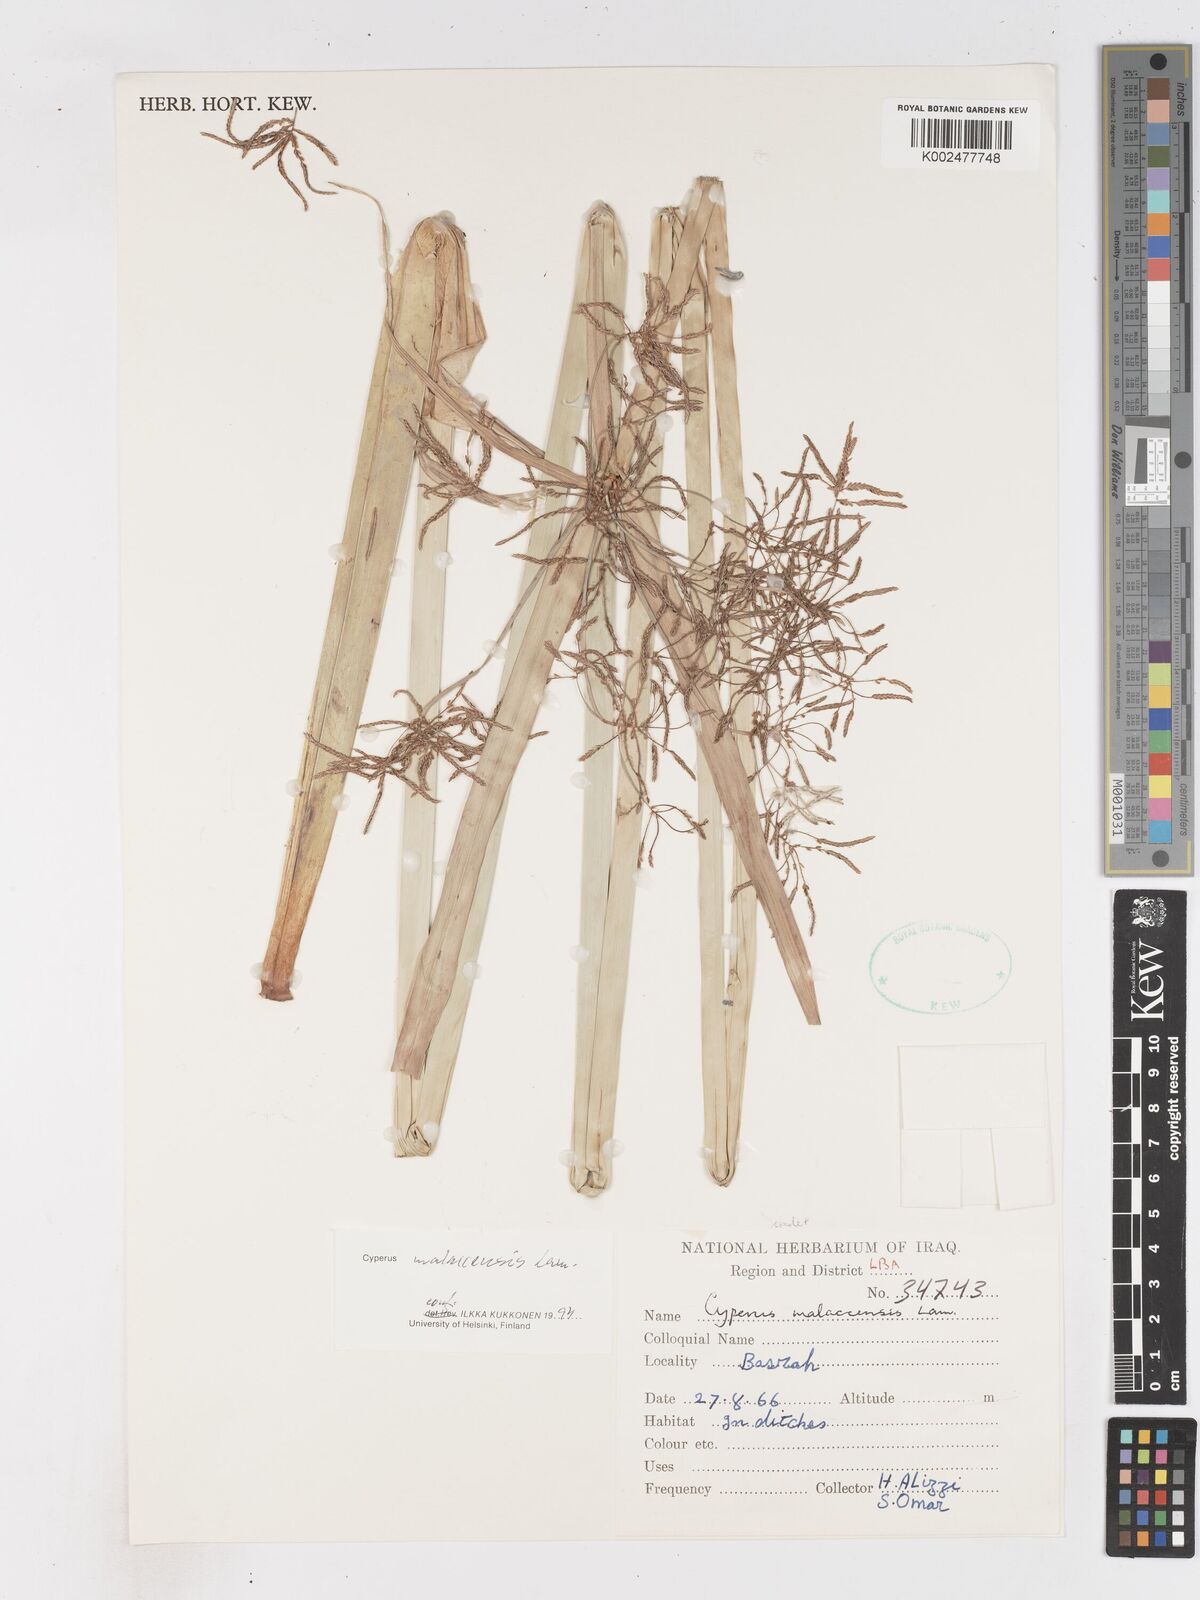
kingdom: Plantae
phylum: Tracheophyta
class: Liliopsida
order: Poales
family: Cyperaceae
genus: Cyperus
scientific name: Cyperus malaccensis
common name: Shichito matgrass
